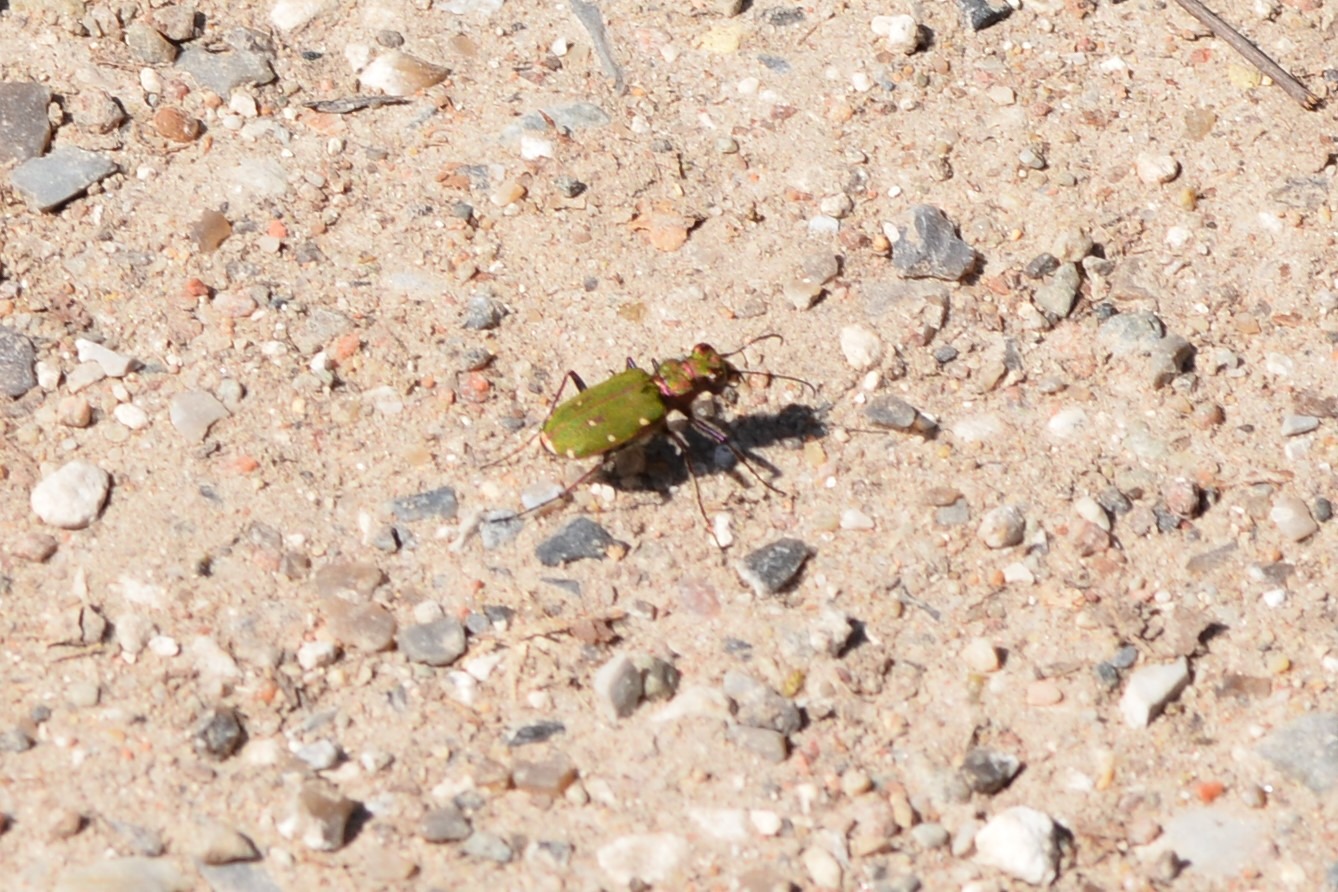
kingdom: Animalia
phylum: Arthropoda
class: Insecta
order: Coleoptera
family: Carabidae
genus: Cicindela
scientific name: Cicindela campestris
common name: Grøn sandspringer
